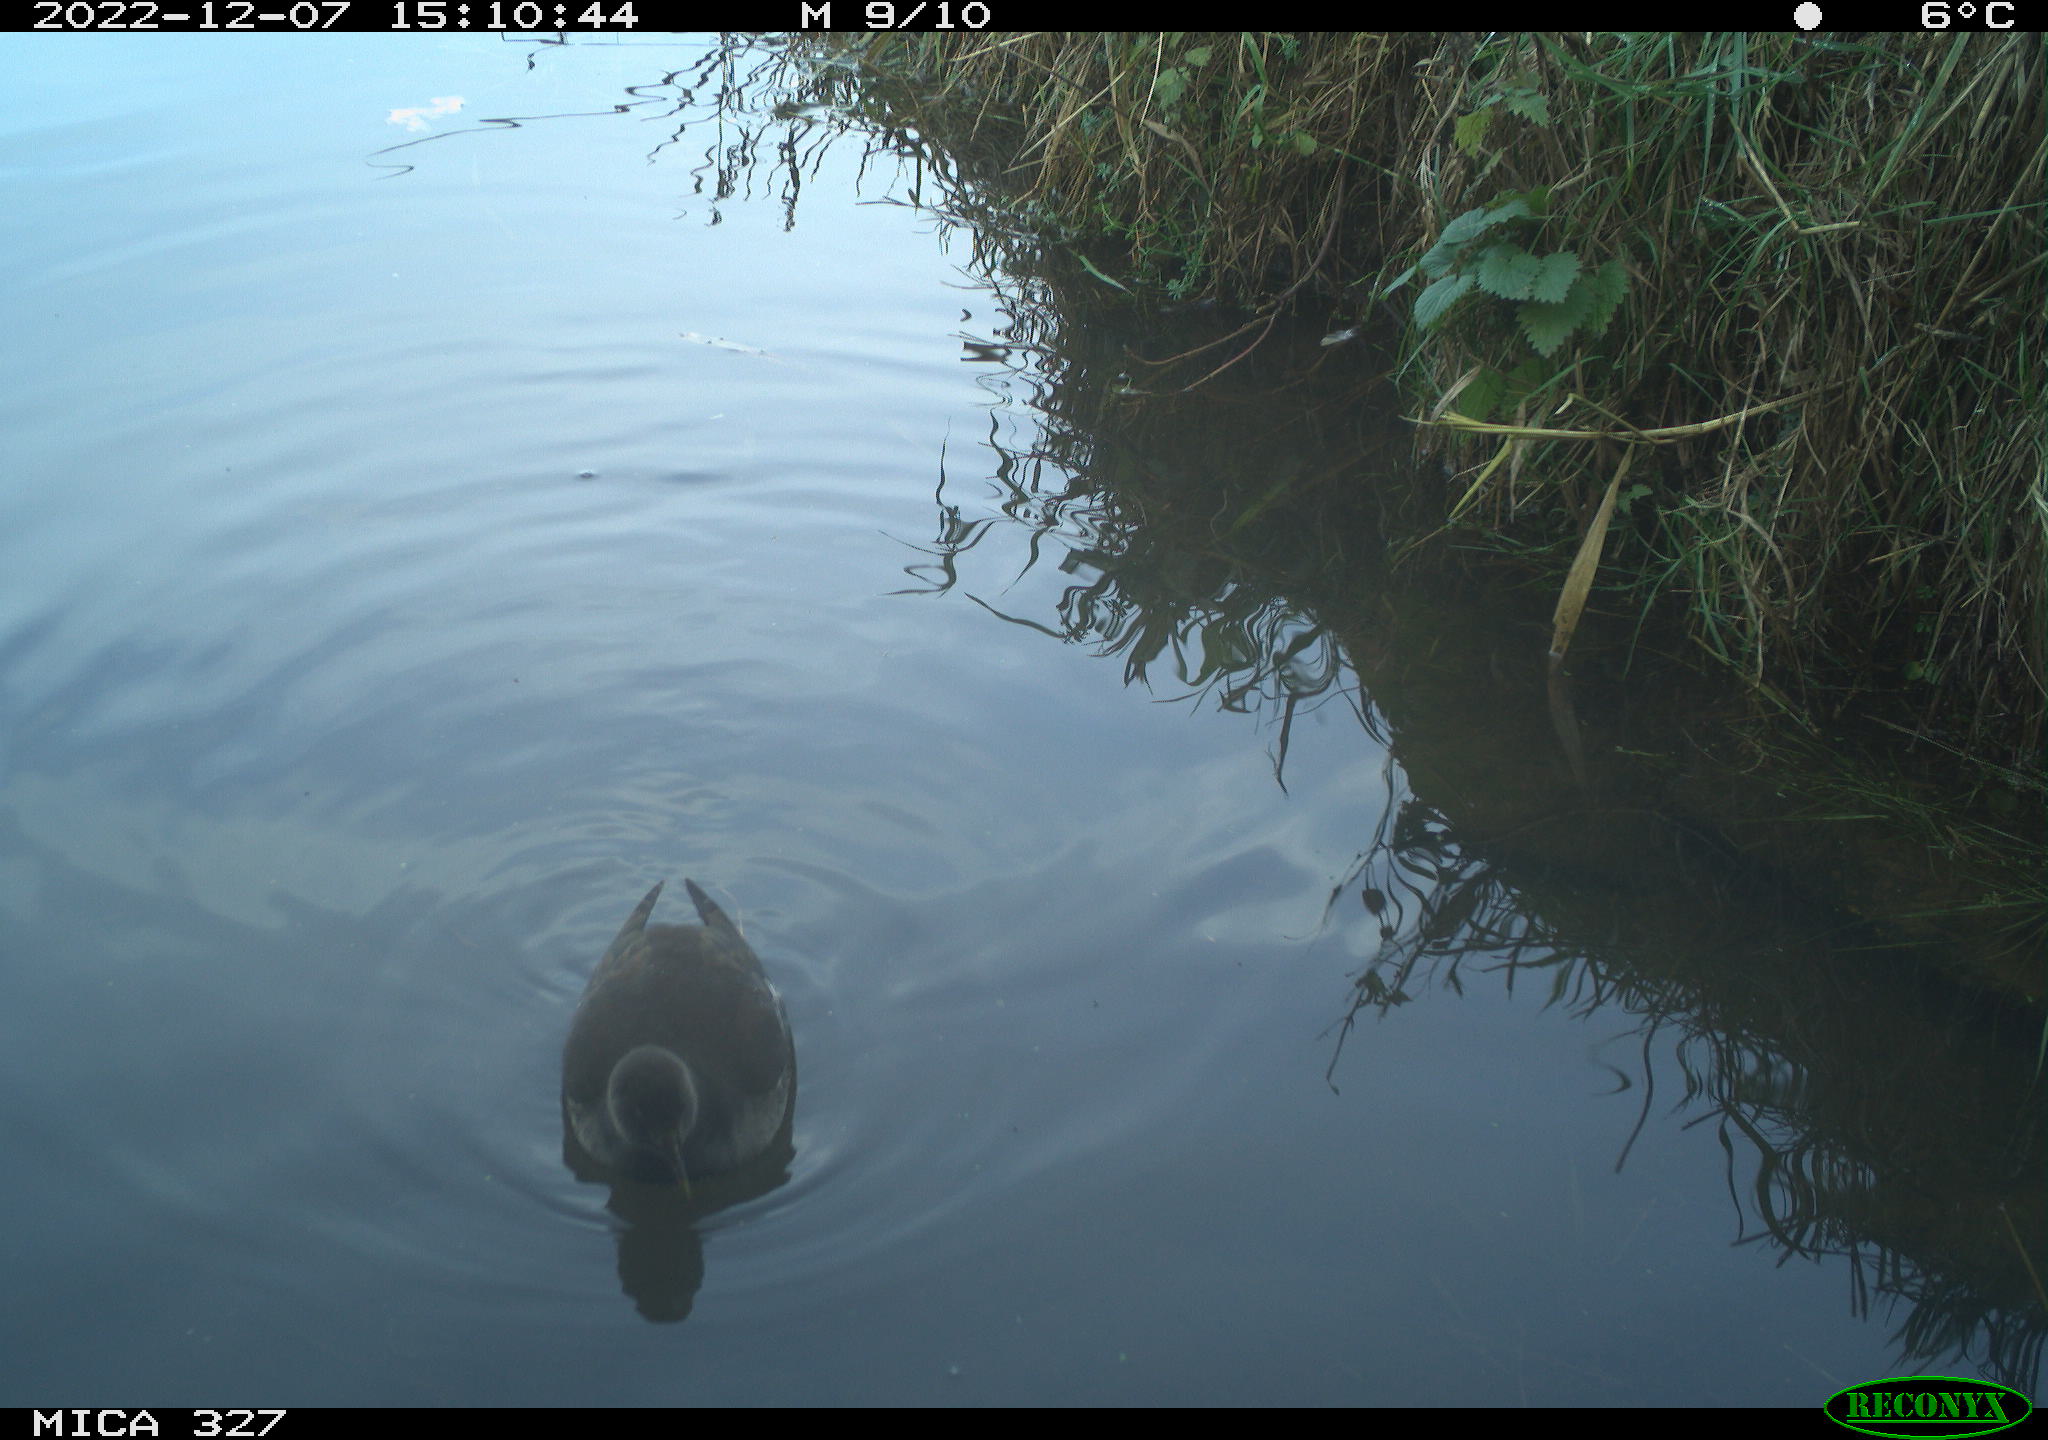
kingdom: Animalia
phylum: Chordata
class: Aves
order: Gruiformes
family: Rallidae
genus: Gallinula
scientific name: Gallinula chloropus
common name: Common moorhen
